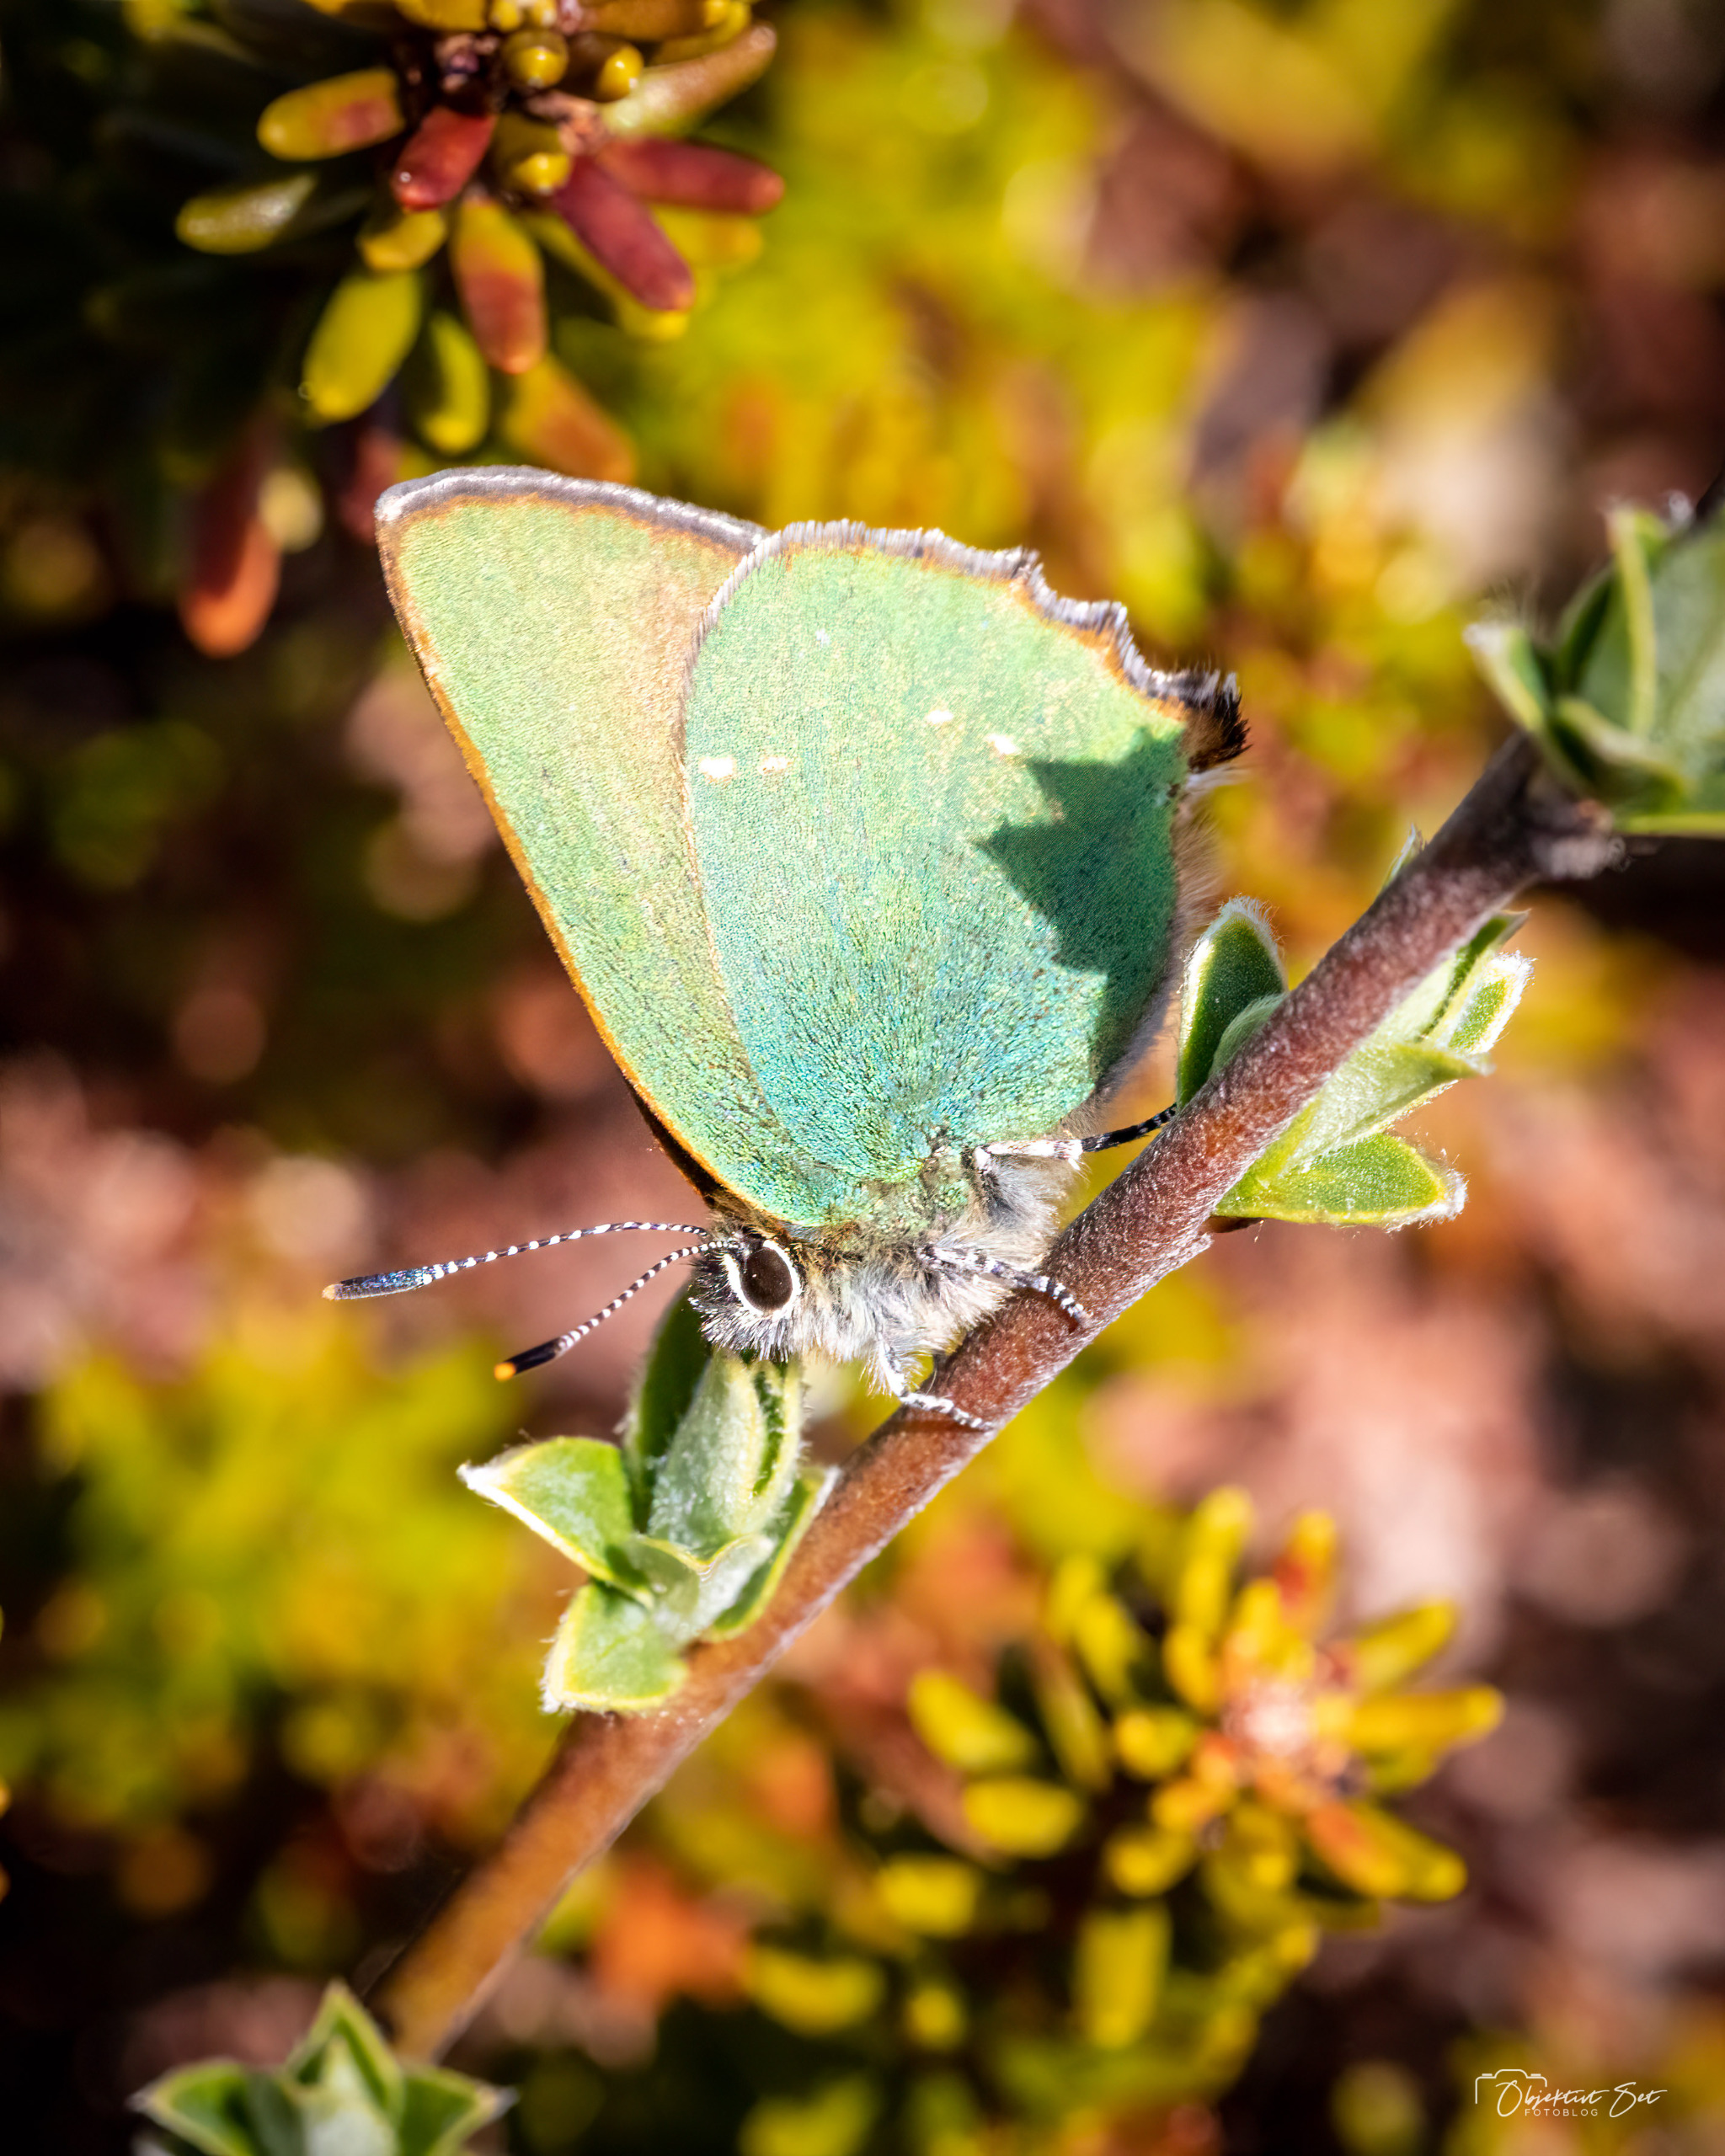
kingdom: Animalia
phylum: Arthropoda
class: Insecta
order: Lepidoptera
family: Lycaenidae
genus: Callophrys
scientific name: Callophrys rubi
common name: Grøn busksommerfugl
